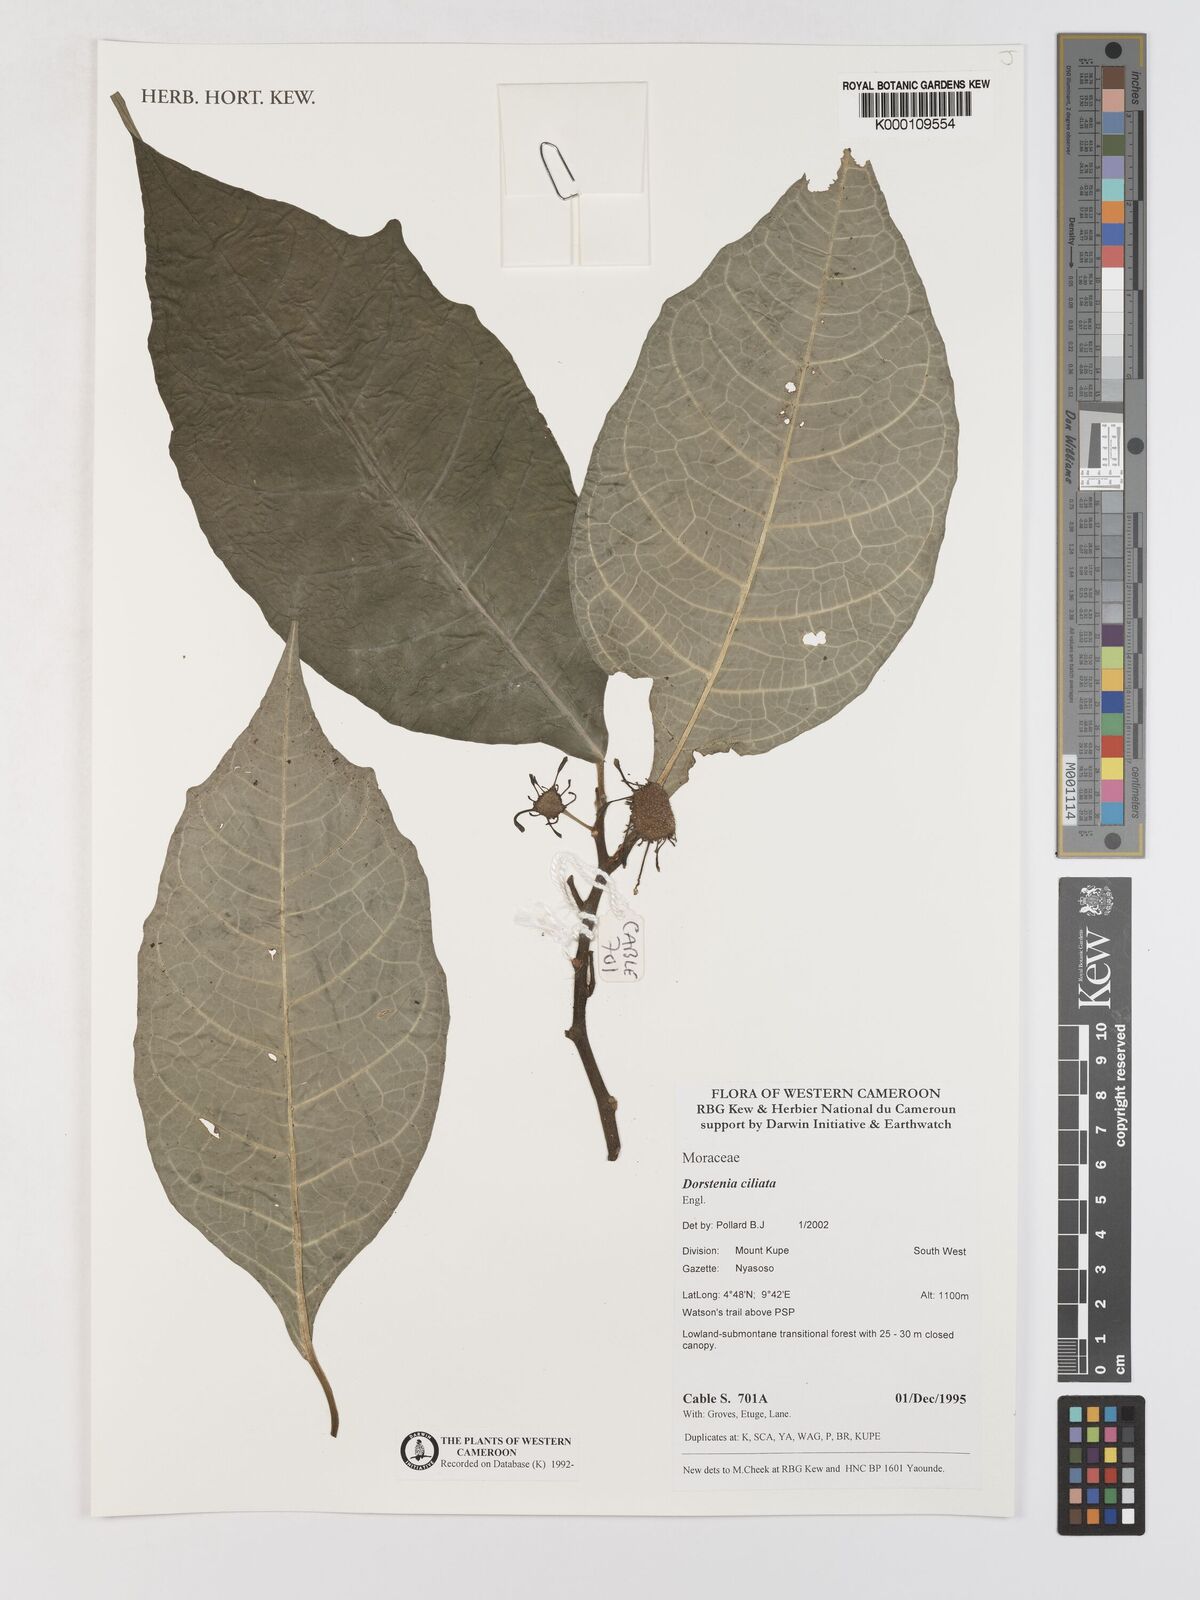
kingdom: Plantae
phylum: Tracheophyta
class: Magnoliopsida
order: Rosales
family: Moraceae
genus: Dorstenia
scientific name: Dorstenia ciliata
